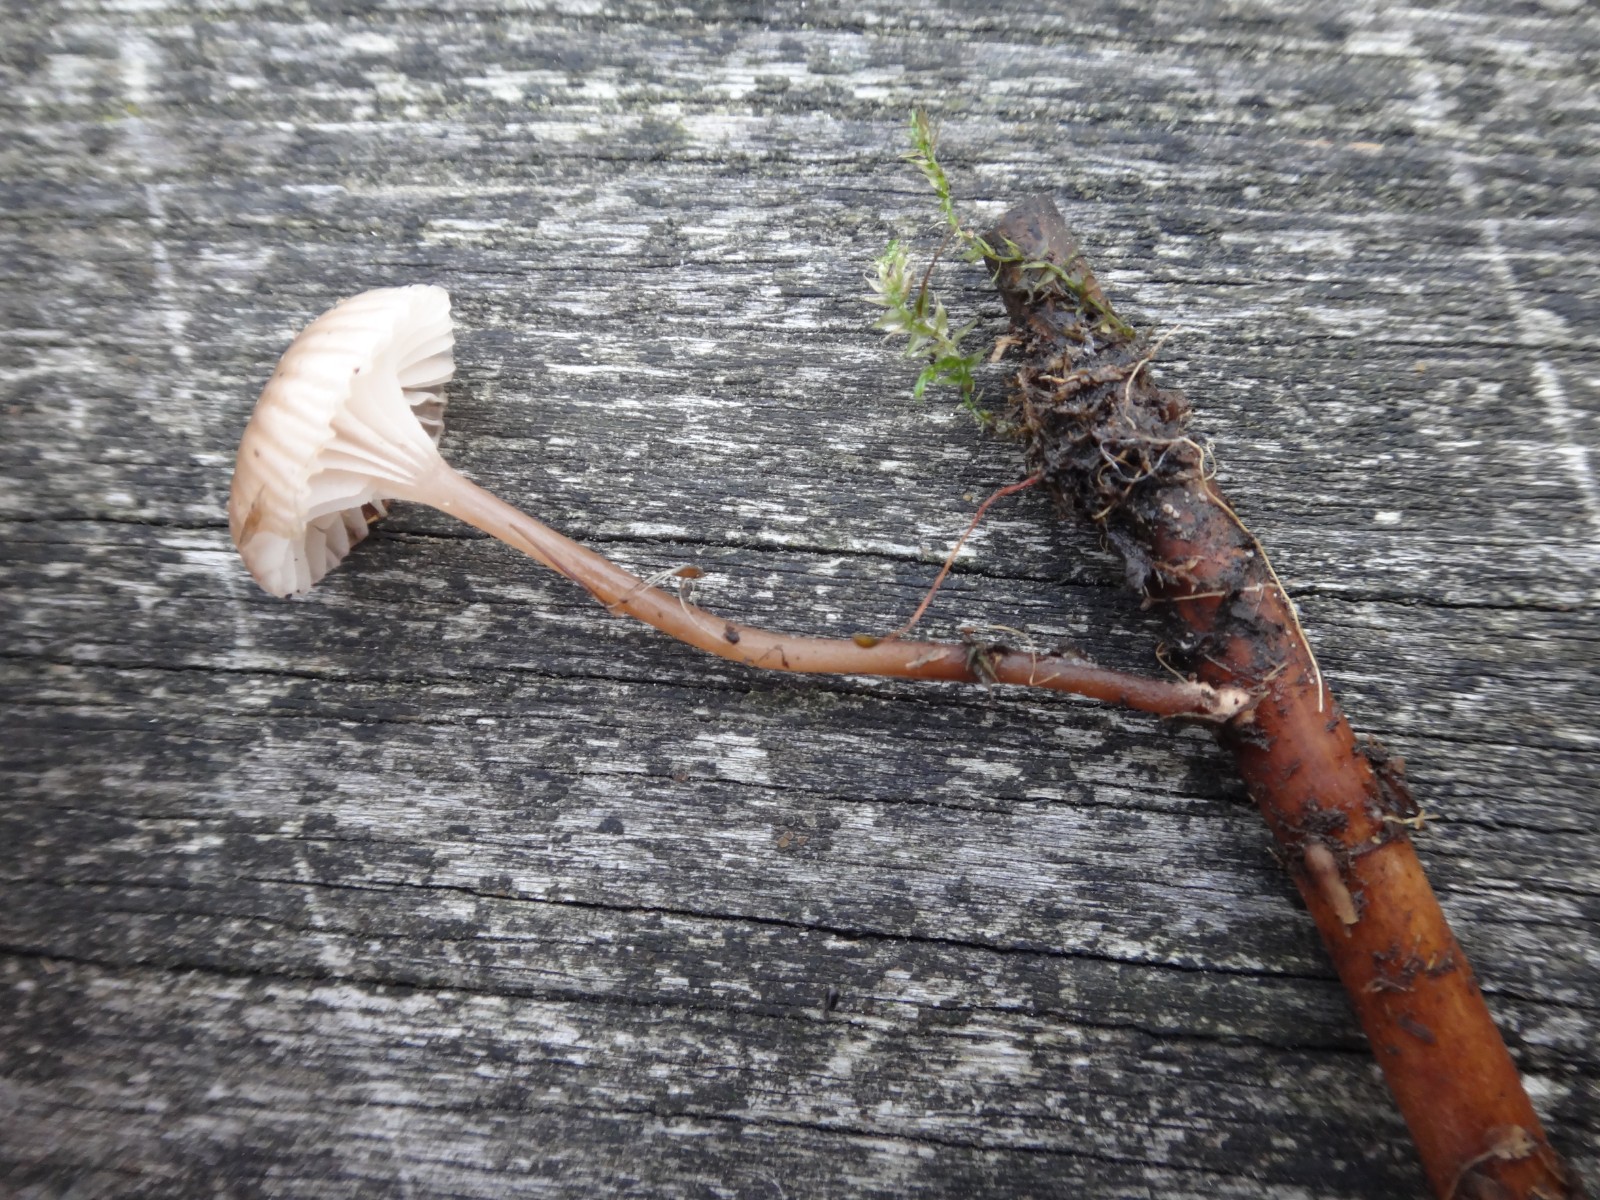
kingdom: Fungi
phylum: Basidiomycota
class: Agaricomycetes
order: Agaricales
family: Mycenaceae
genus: Mycena
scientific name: Mycena belliae
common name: tagrørs-huesvamp
